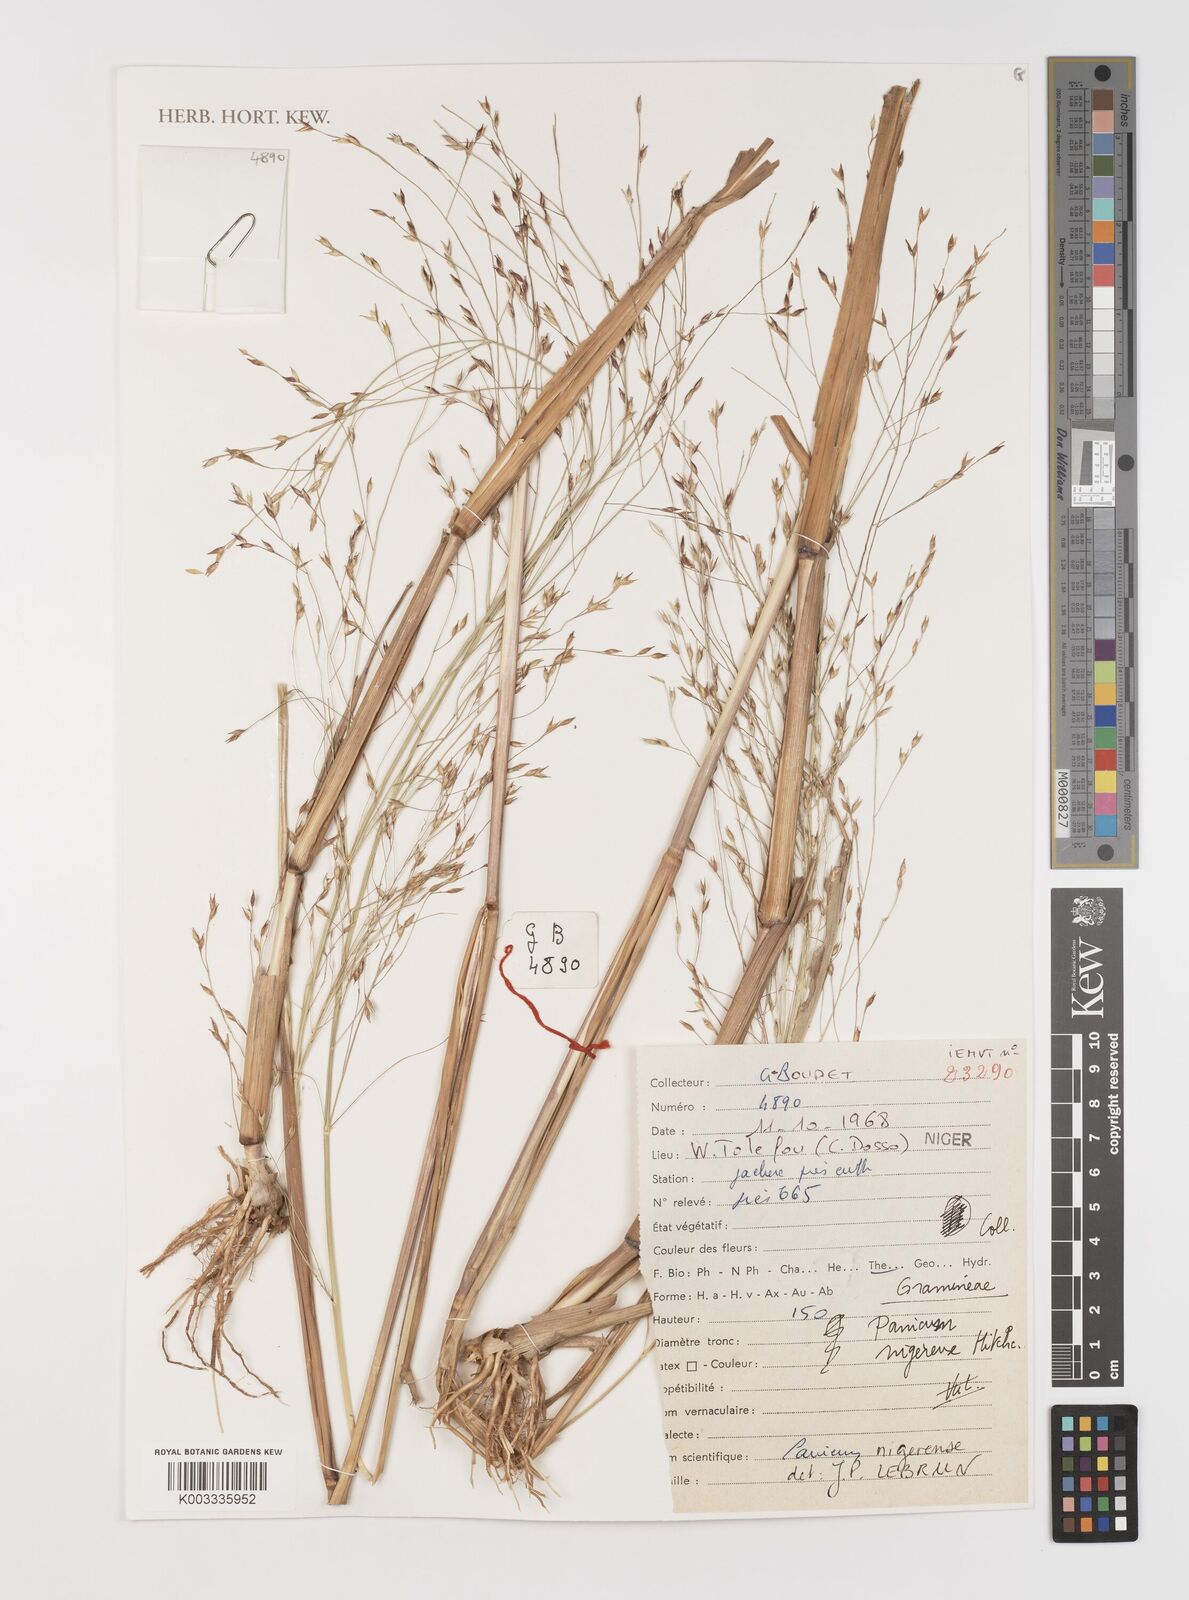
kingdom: Plantae
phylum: Tracheophyta
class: Liliopsida
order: Poales
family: Poaceae
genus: Panicum
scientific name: Panicum nigerense
